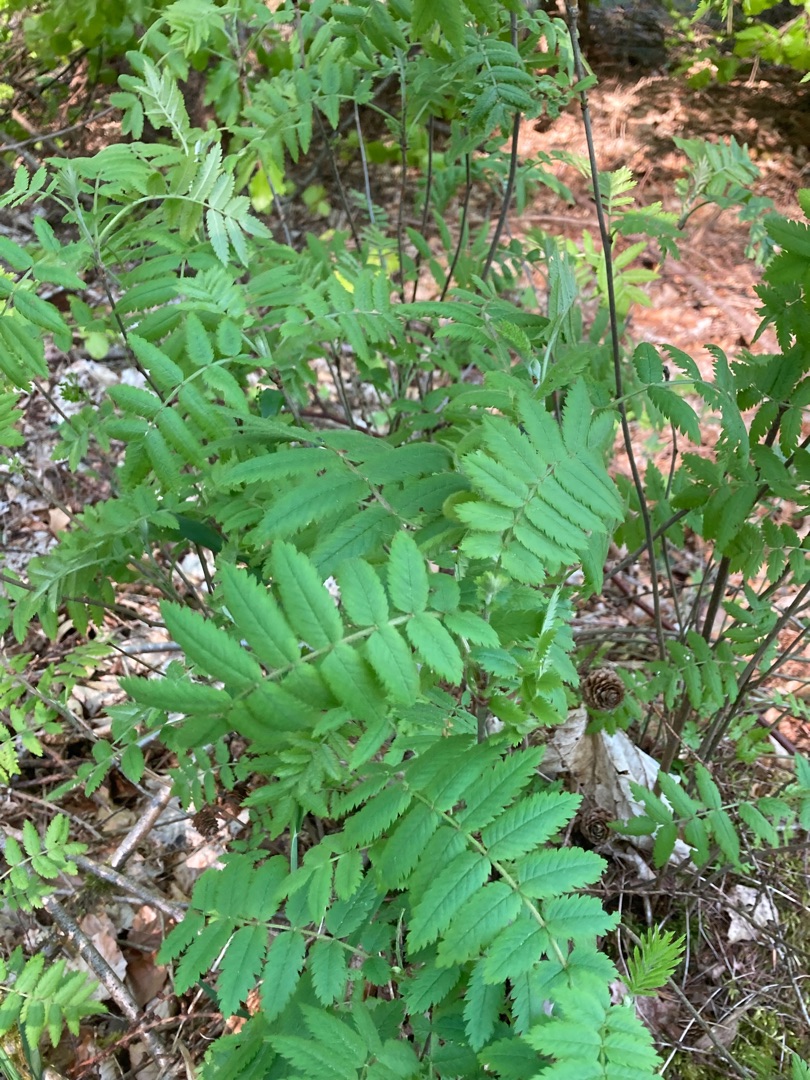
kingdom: Plantae
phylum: Tracheophyta
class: Magnoliopsida
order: Rosales
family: Rosaceae
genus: Sorbus
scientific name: Sorbus aucuparia
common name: Almindelig røn
